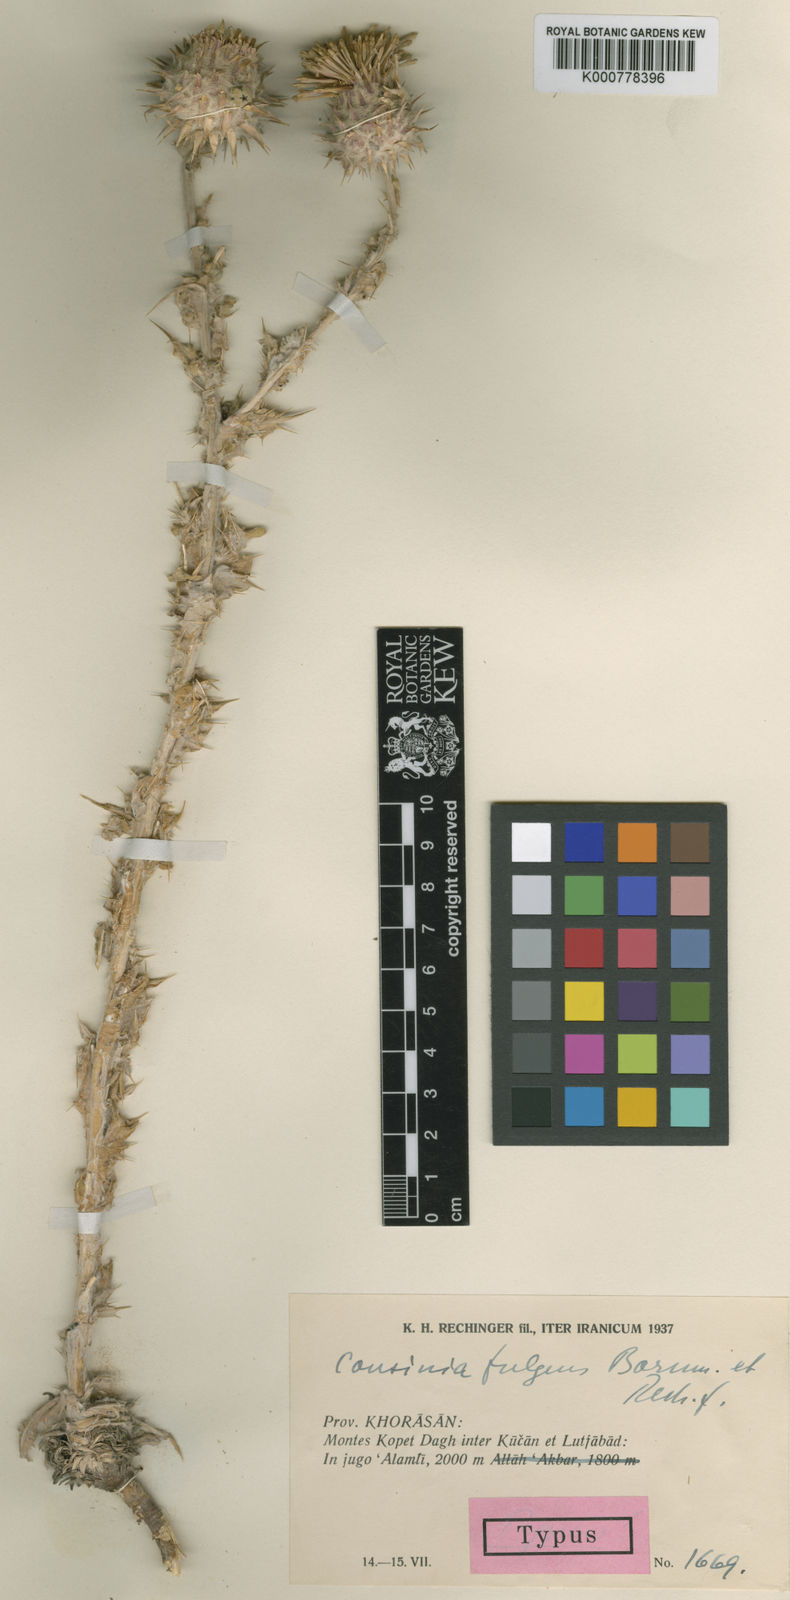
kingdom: Plantae
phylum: Tracheophyta
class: Magnoliopsida
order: Asterales
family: Asteraceae
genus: Cousinia
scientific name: Cousinia smirnowii
